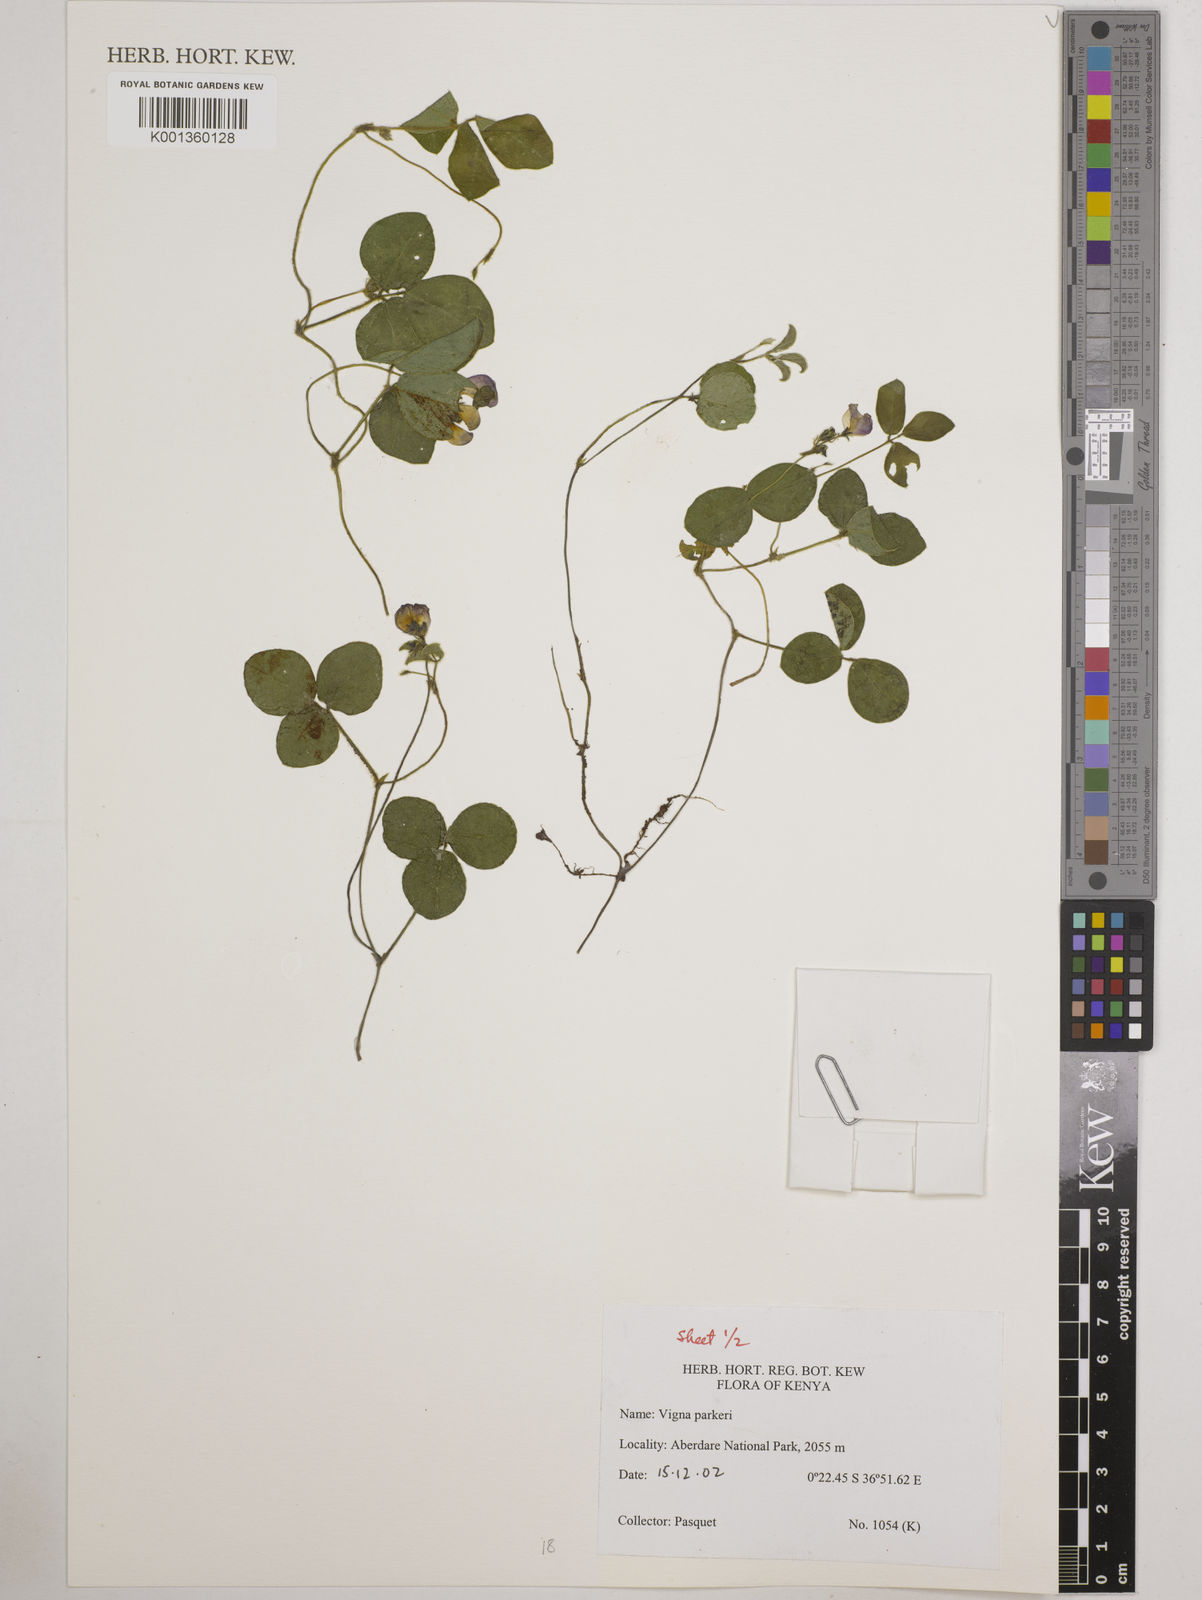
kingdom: Plantae
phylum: Tracheophyta
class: Magnoliopsida
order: Fabales
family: Fabaceae
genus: Vigna
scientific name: Vigna parkeri
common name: Creeping vigna
